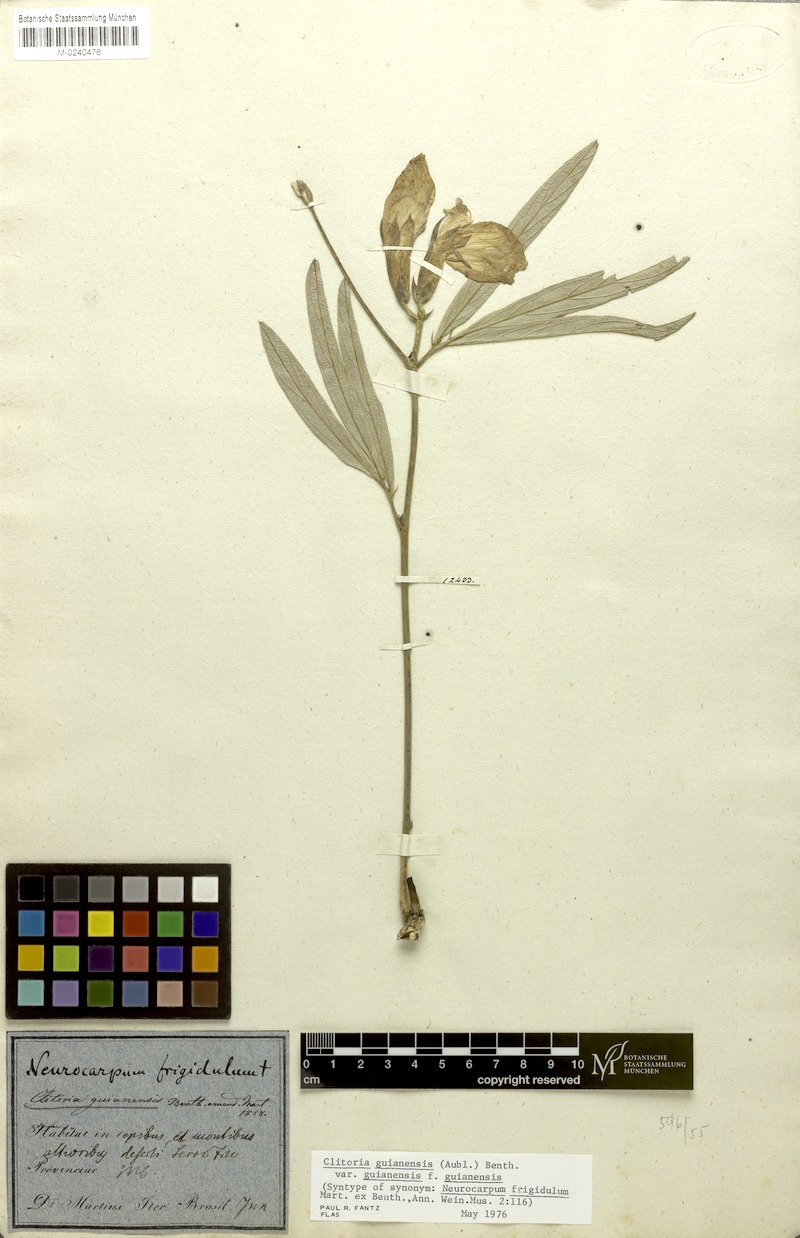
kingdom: Plantae
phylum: Tracheophyta
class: Magnoliopsida
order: Fabales
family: Fabaceae
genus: Clitoria
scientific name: Clitoria guianensis
